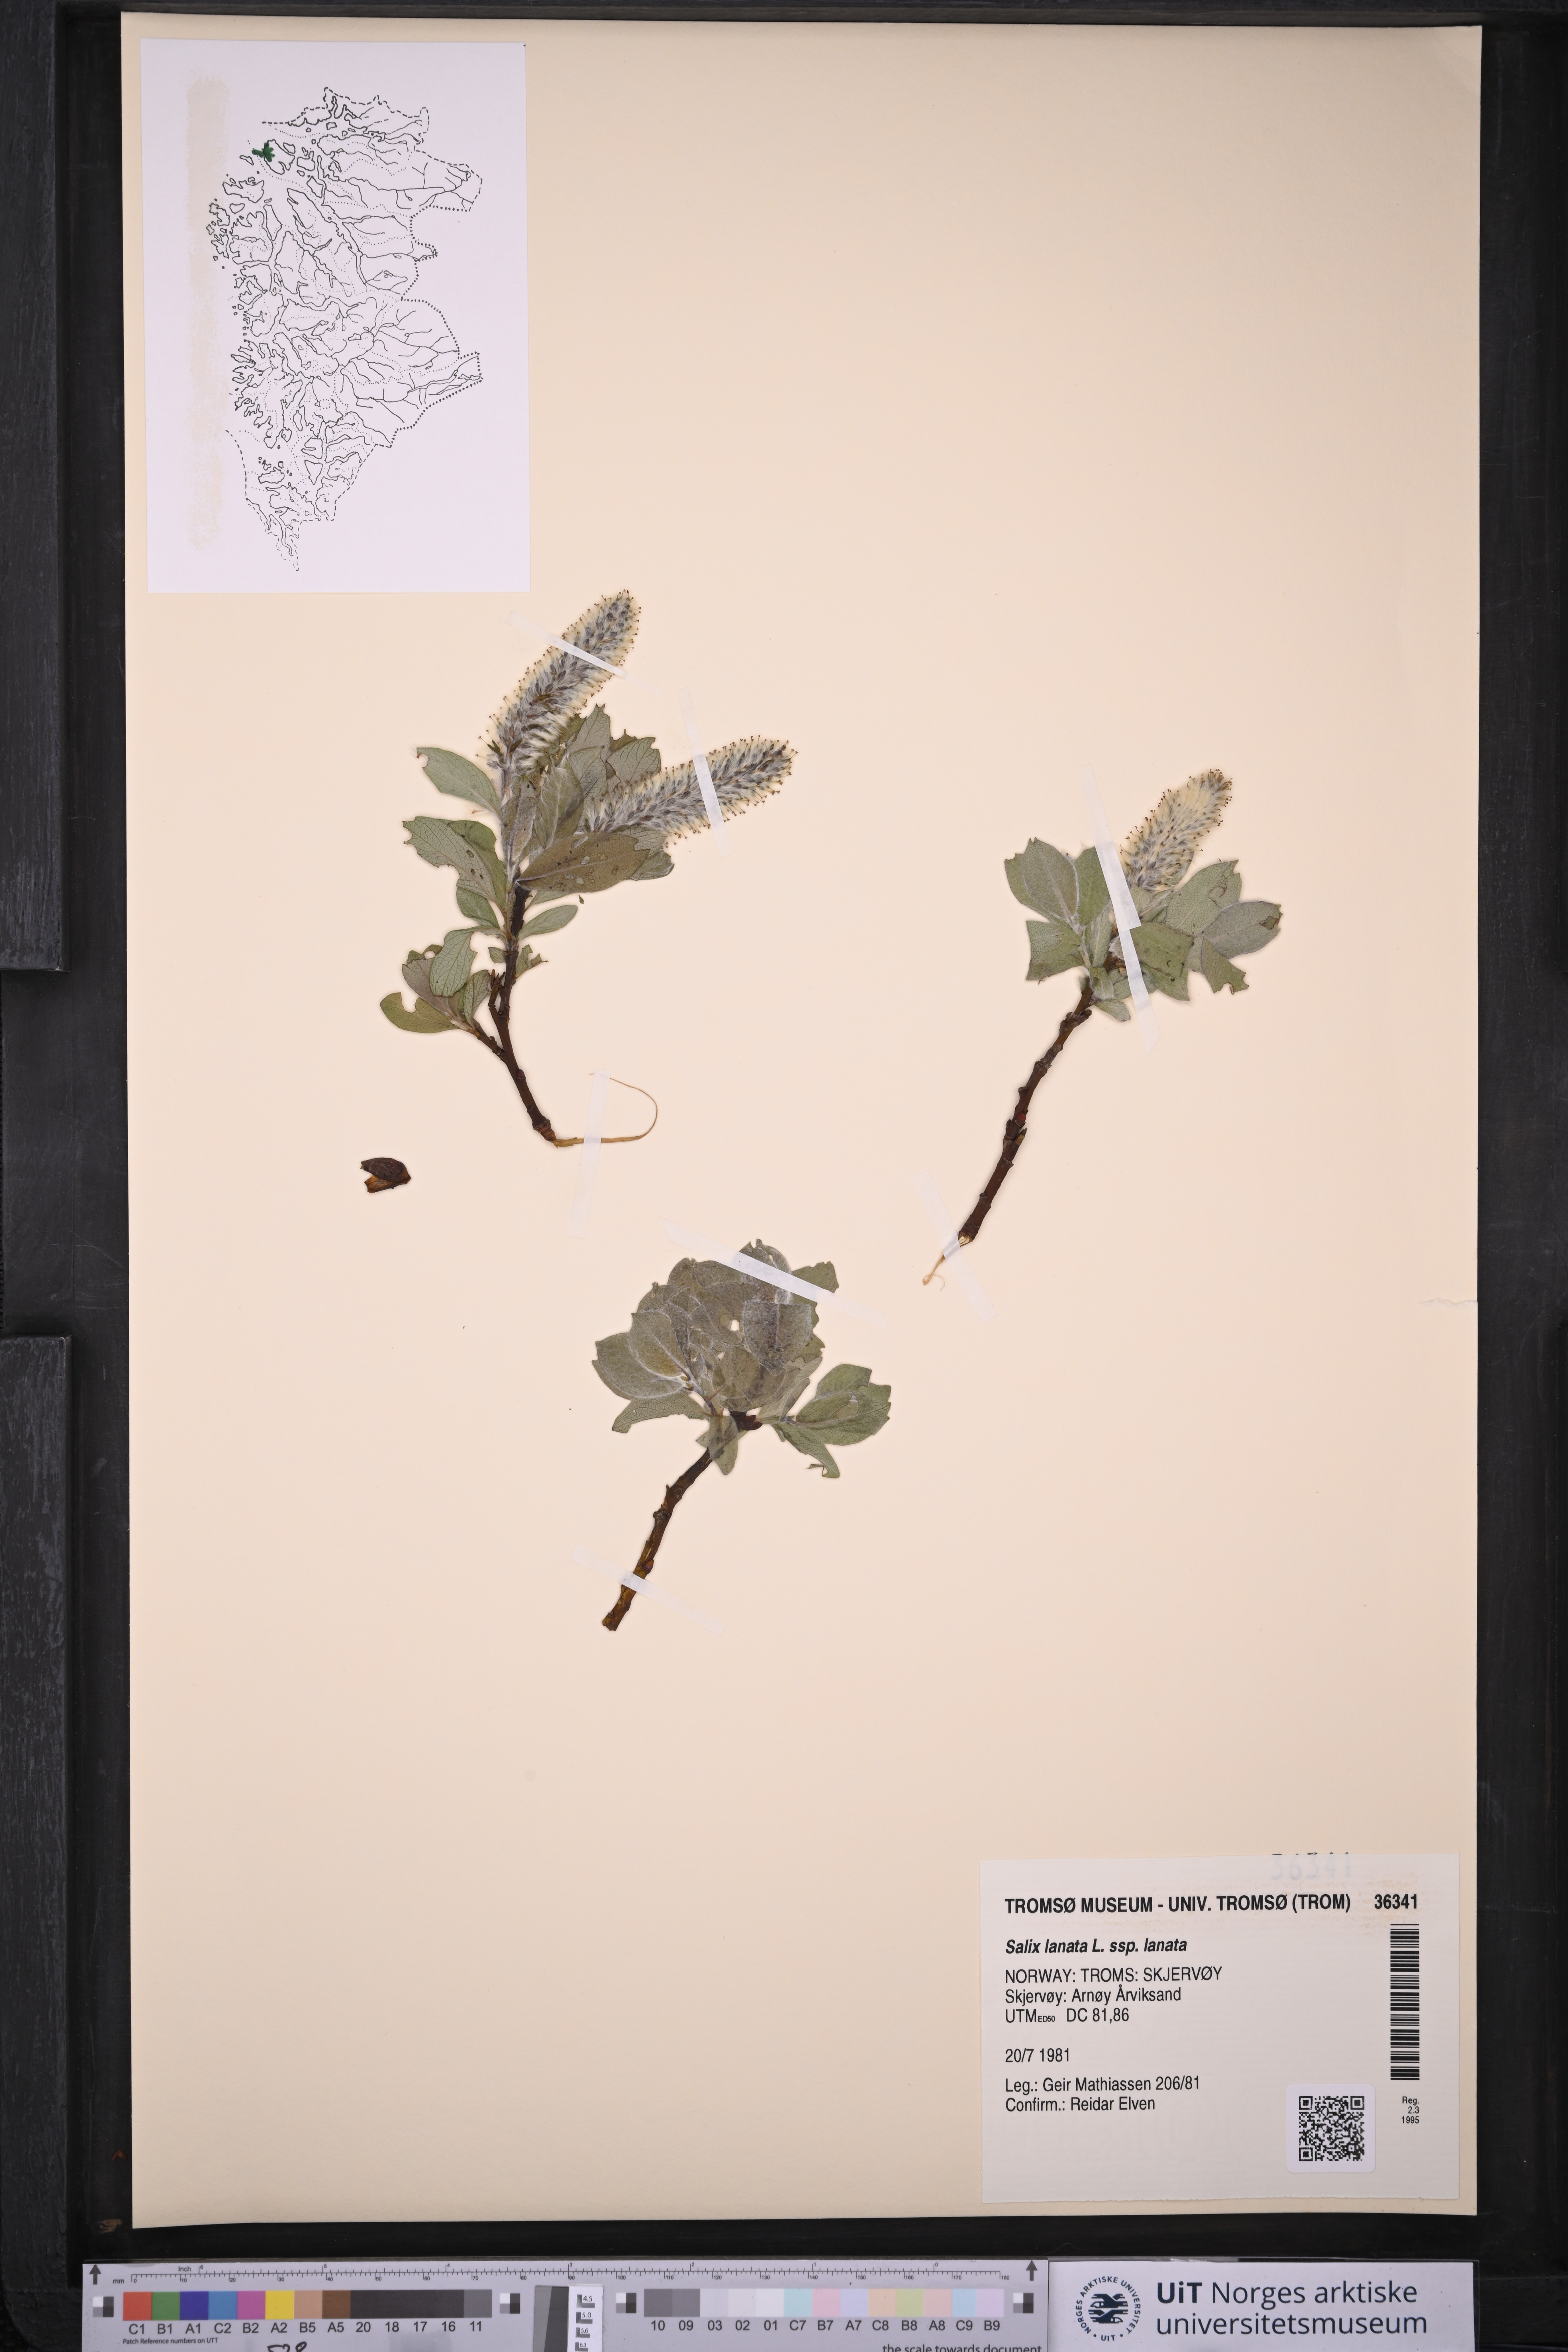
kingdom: Plantae
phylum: Tracheophyta
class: Magnoliopsida
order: Malpighiales
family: Salicaceae
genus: Salix
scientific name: Salix lanata
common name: Woolly willow
